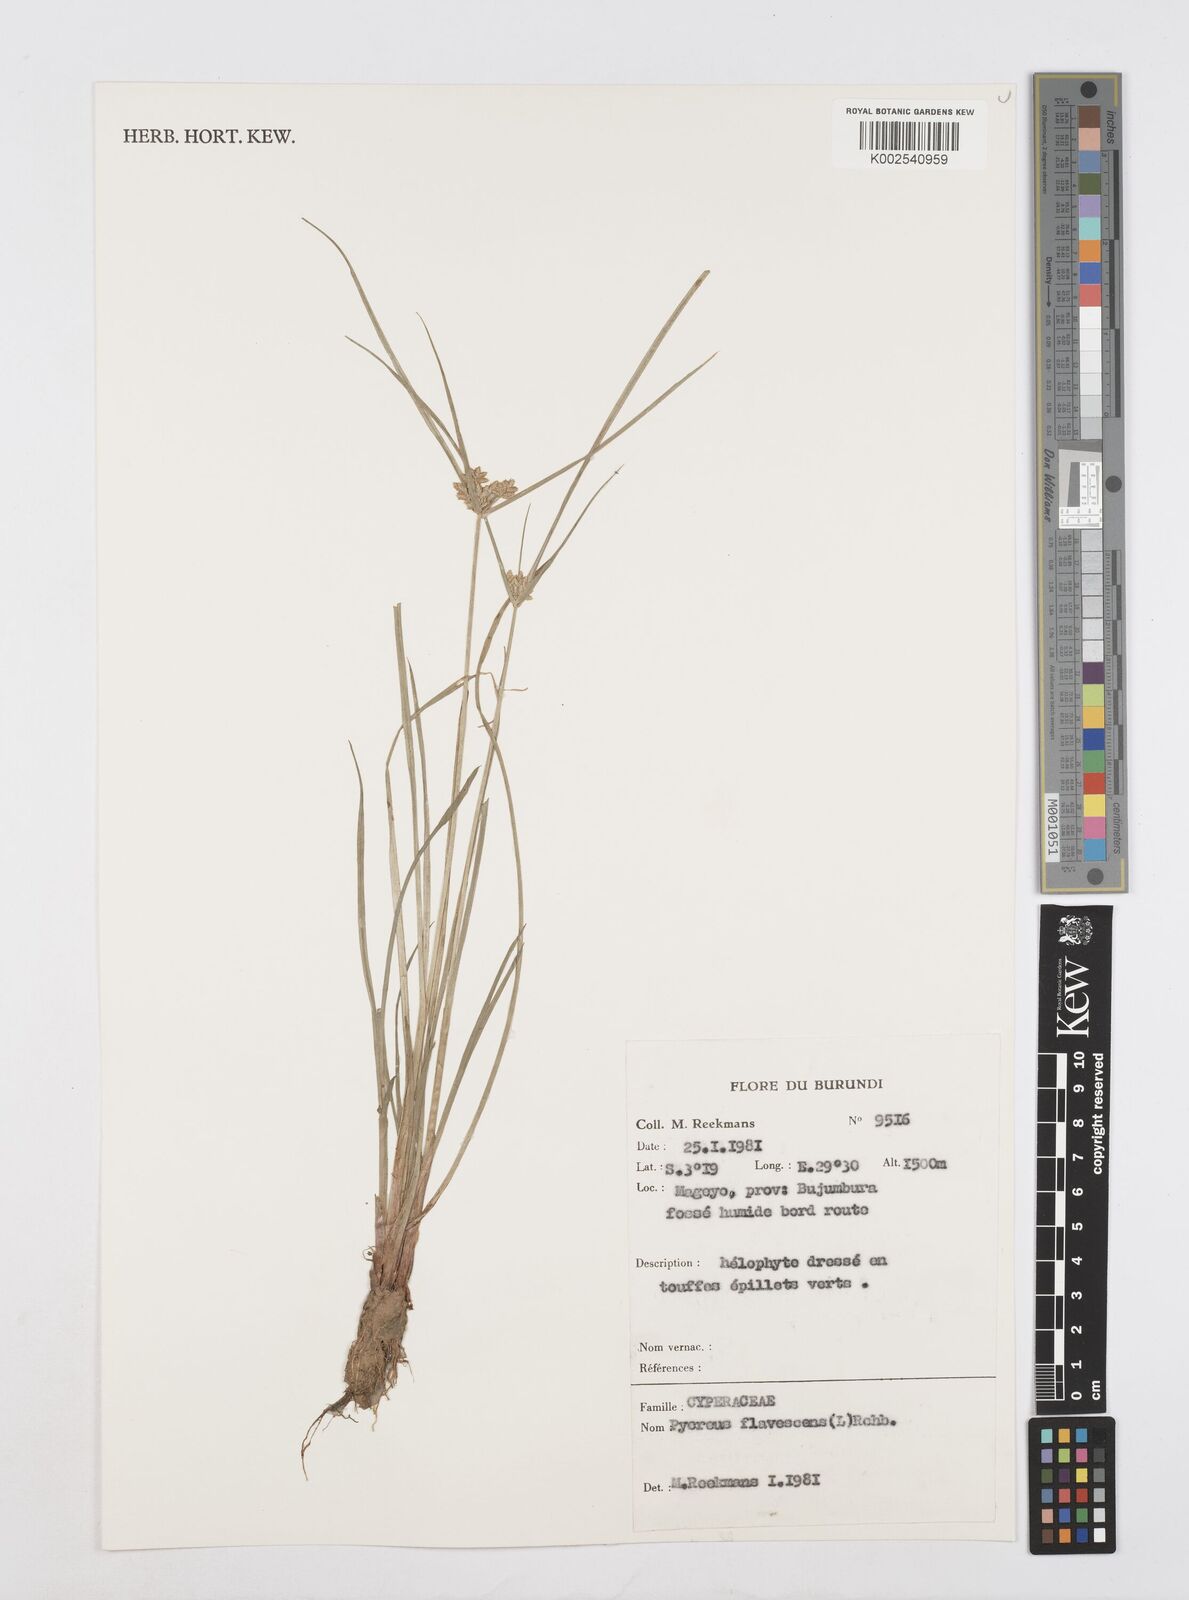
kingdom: Plantae
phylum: Tracheophyta
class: Liliopsida
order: Poales
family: Cyperaceae
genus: Cyperus
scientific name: Cyperus flavescens
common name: Yellow galingale
